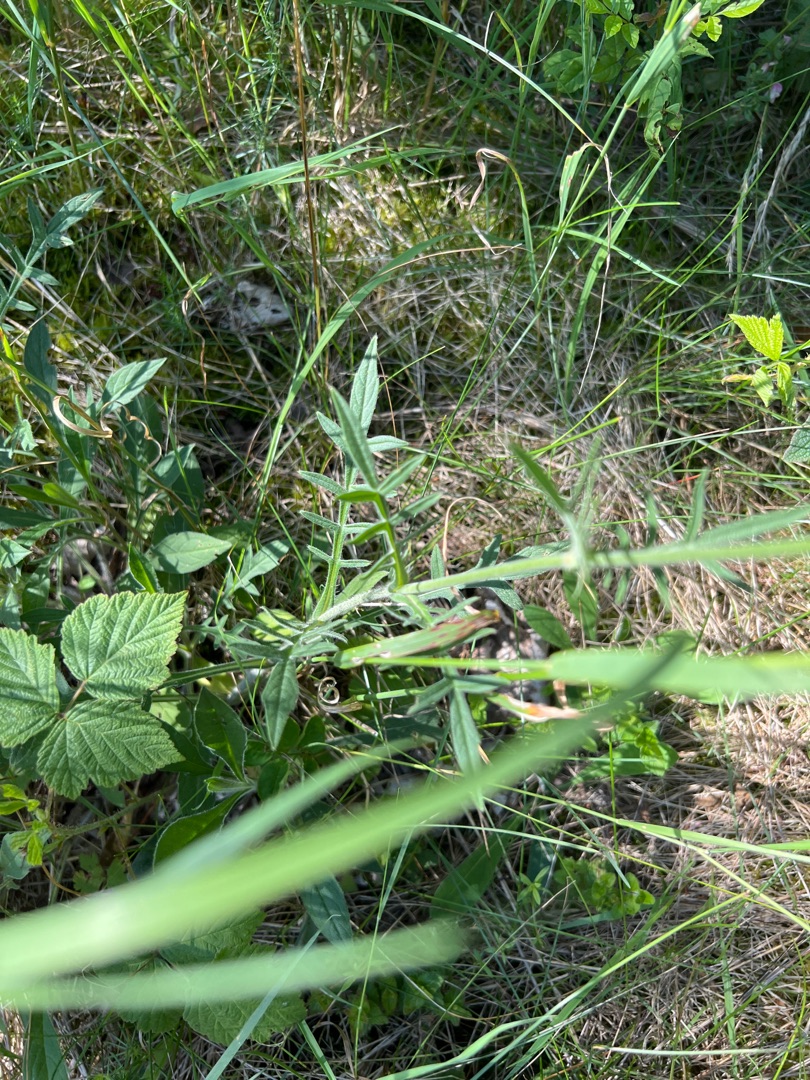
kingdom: Plantae
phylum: Tracheophyta
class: Magnoliopsida
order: Dipsacales
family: Caprifoliaceae
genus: Knautia
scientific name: Knautia arvensis
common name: Blåhat
